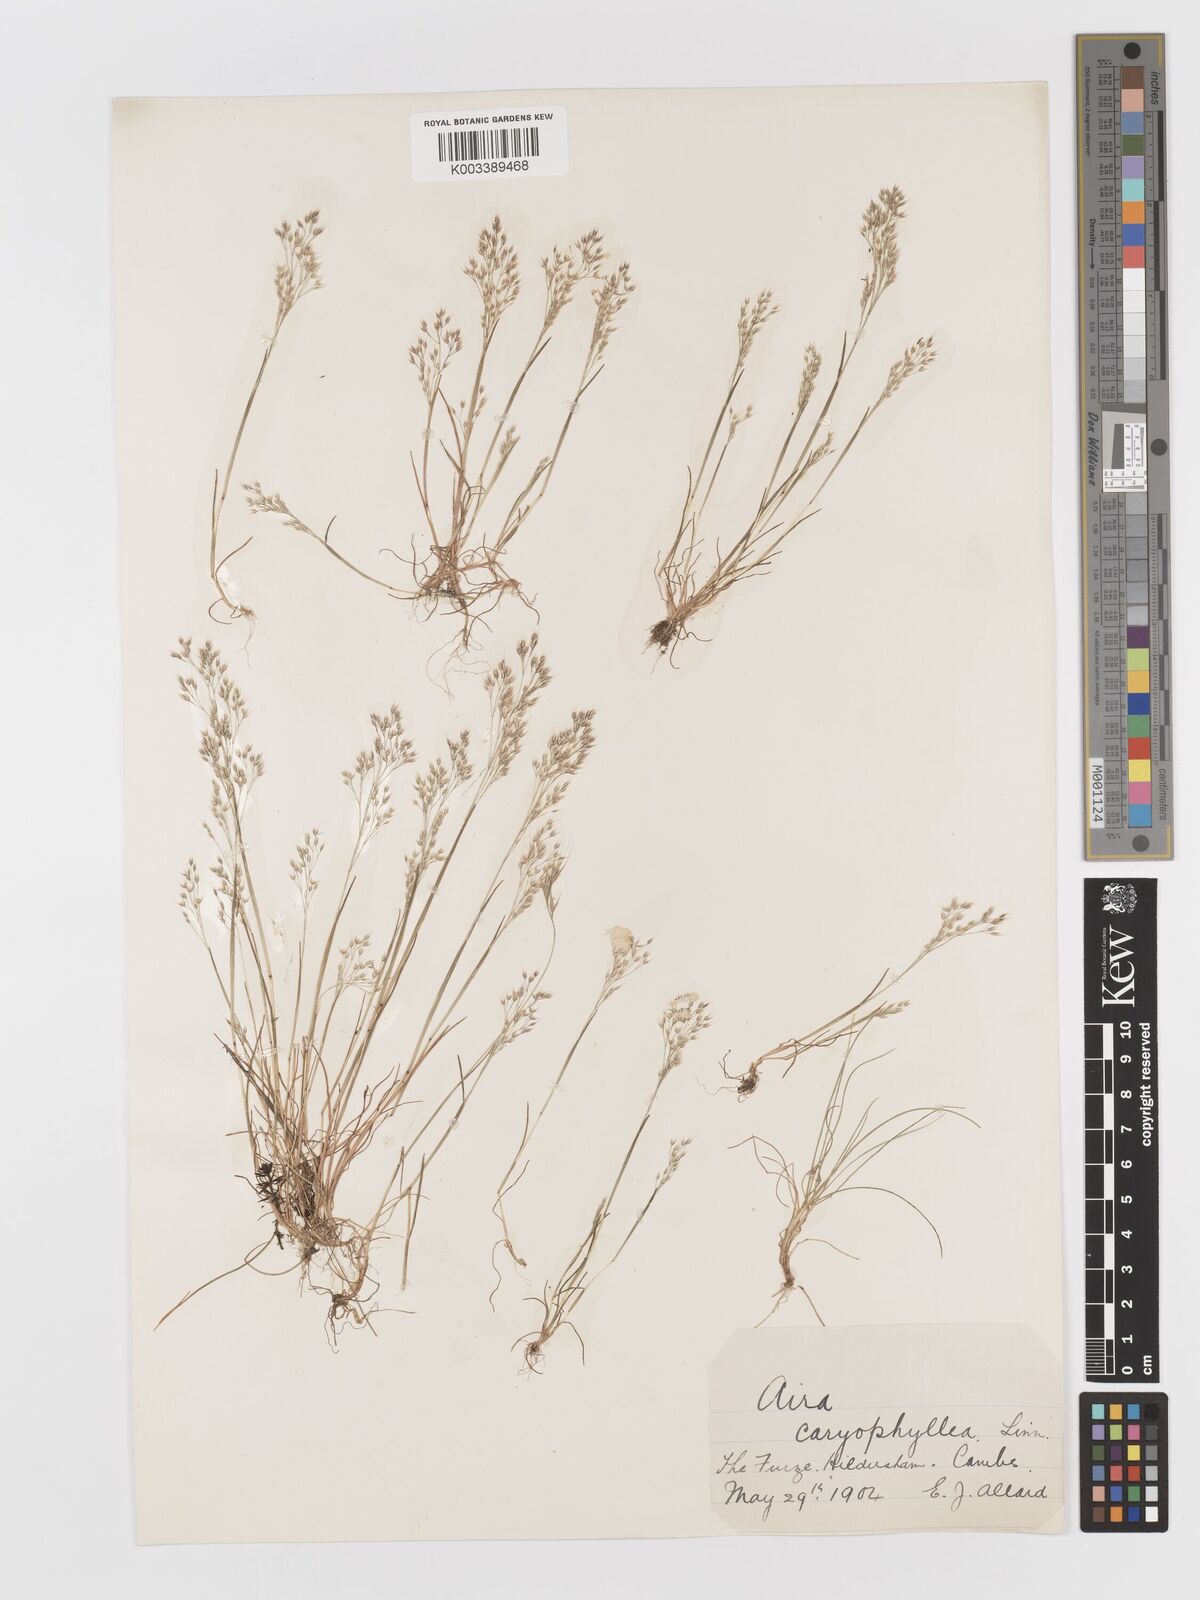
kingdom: Plantae
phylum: Tracheophyta
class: Liliopsida
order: Poales
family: Poaceae
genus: Aira
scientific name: Aira caryophyllea
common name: Silver hairgrass
